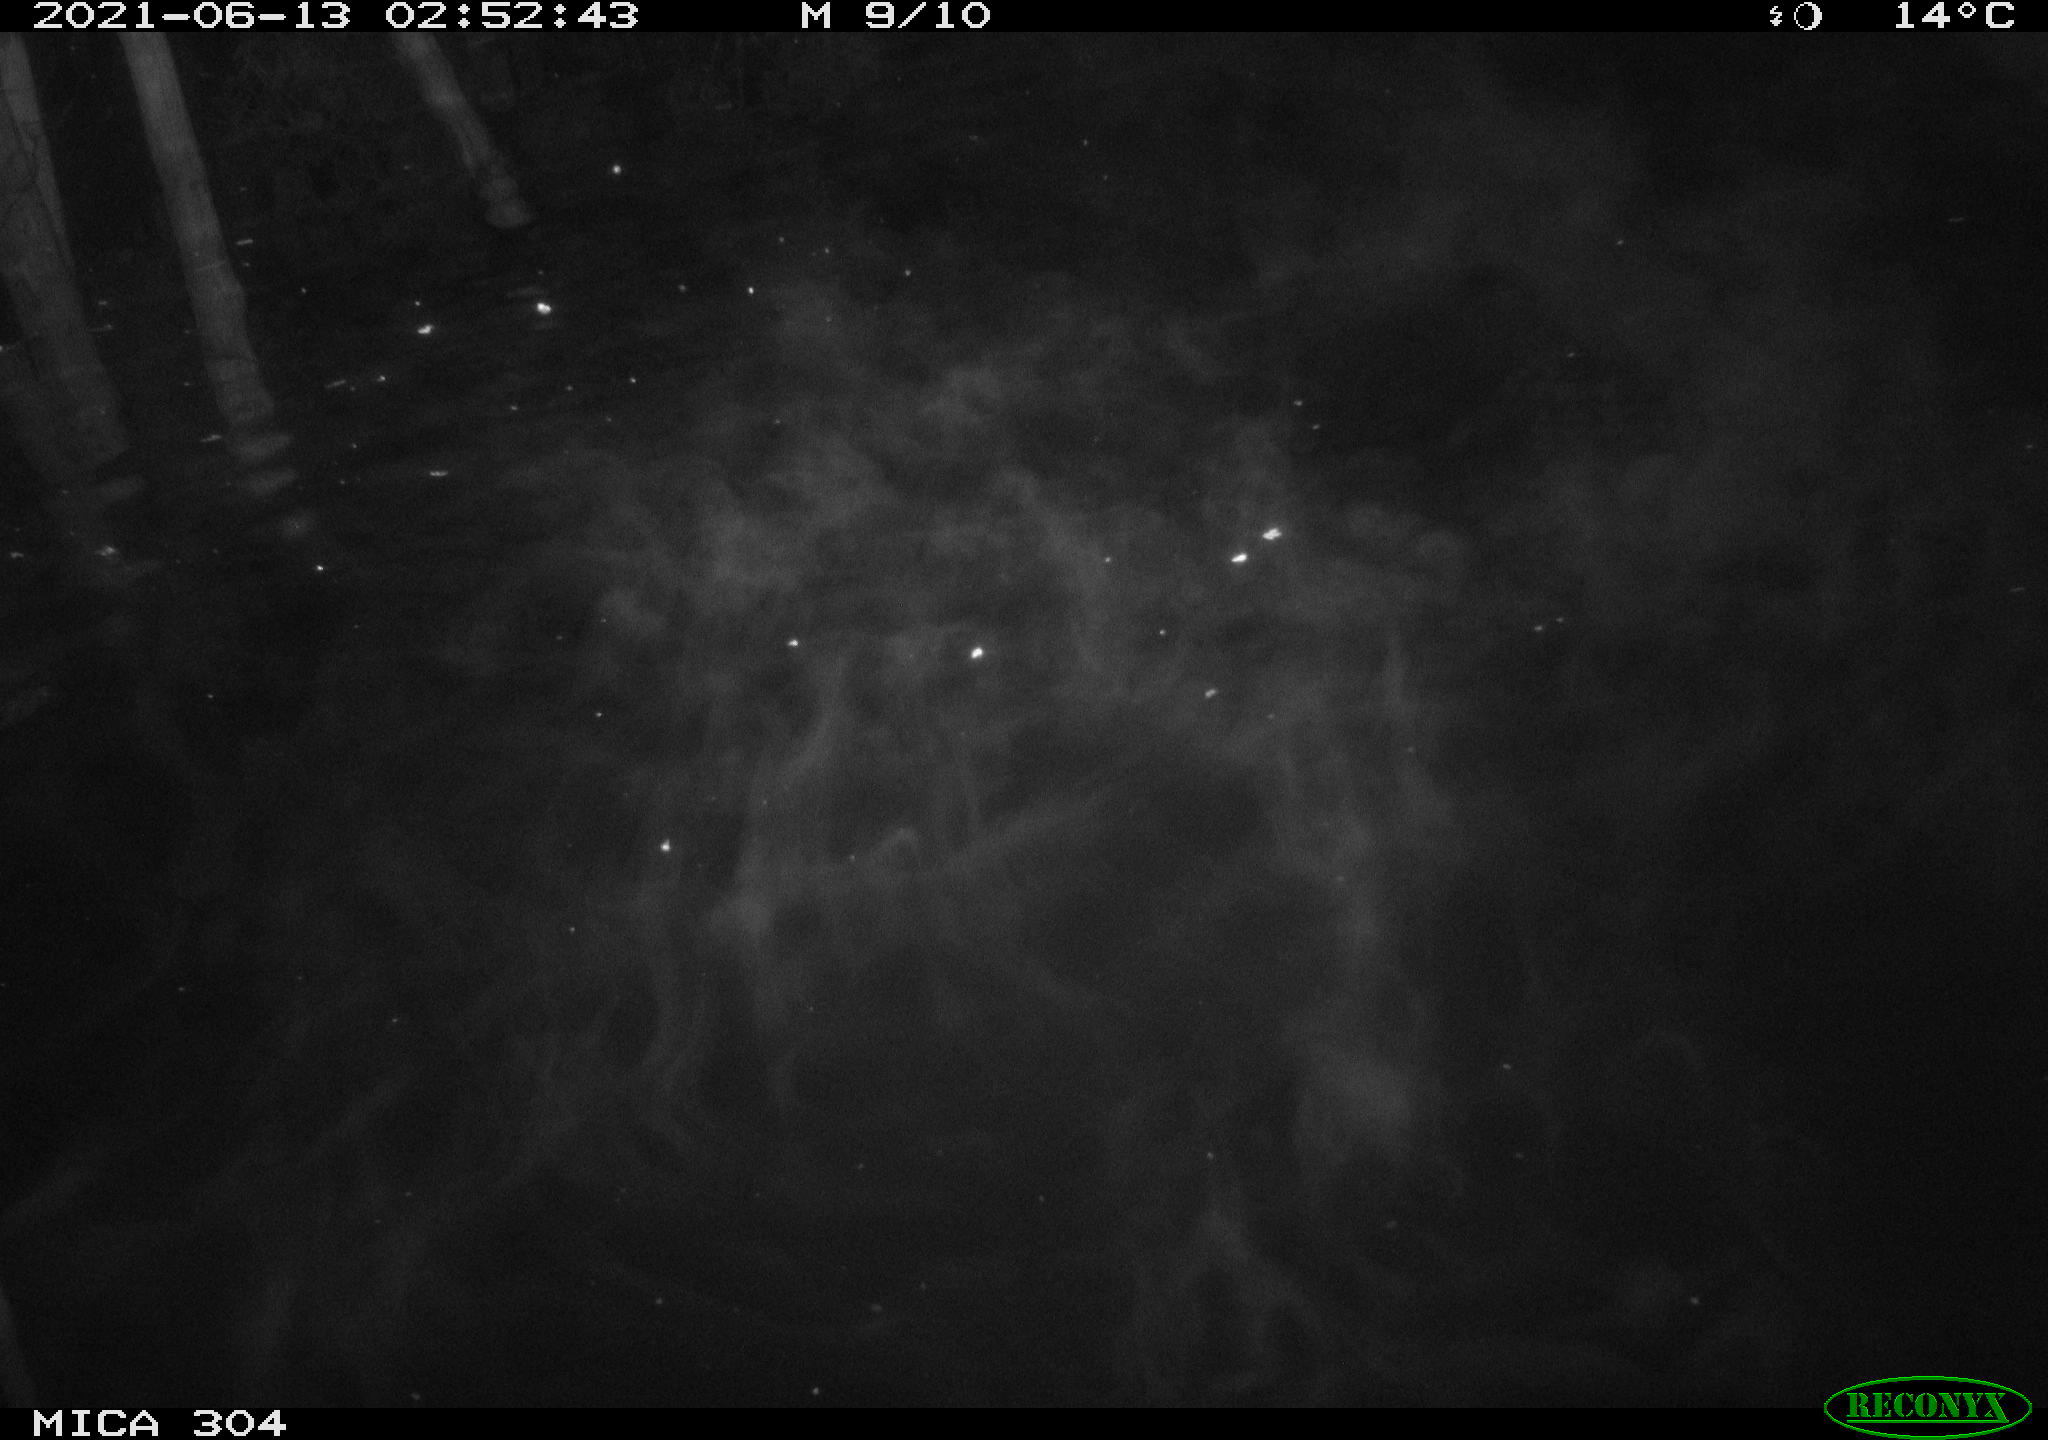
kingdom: Animalia
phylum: Chordata
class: Mammalia
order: Rodentia
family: Cricetidae
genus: Ondatra
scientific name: Ondatra zibethicus
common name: Muskrat
